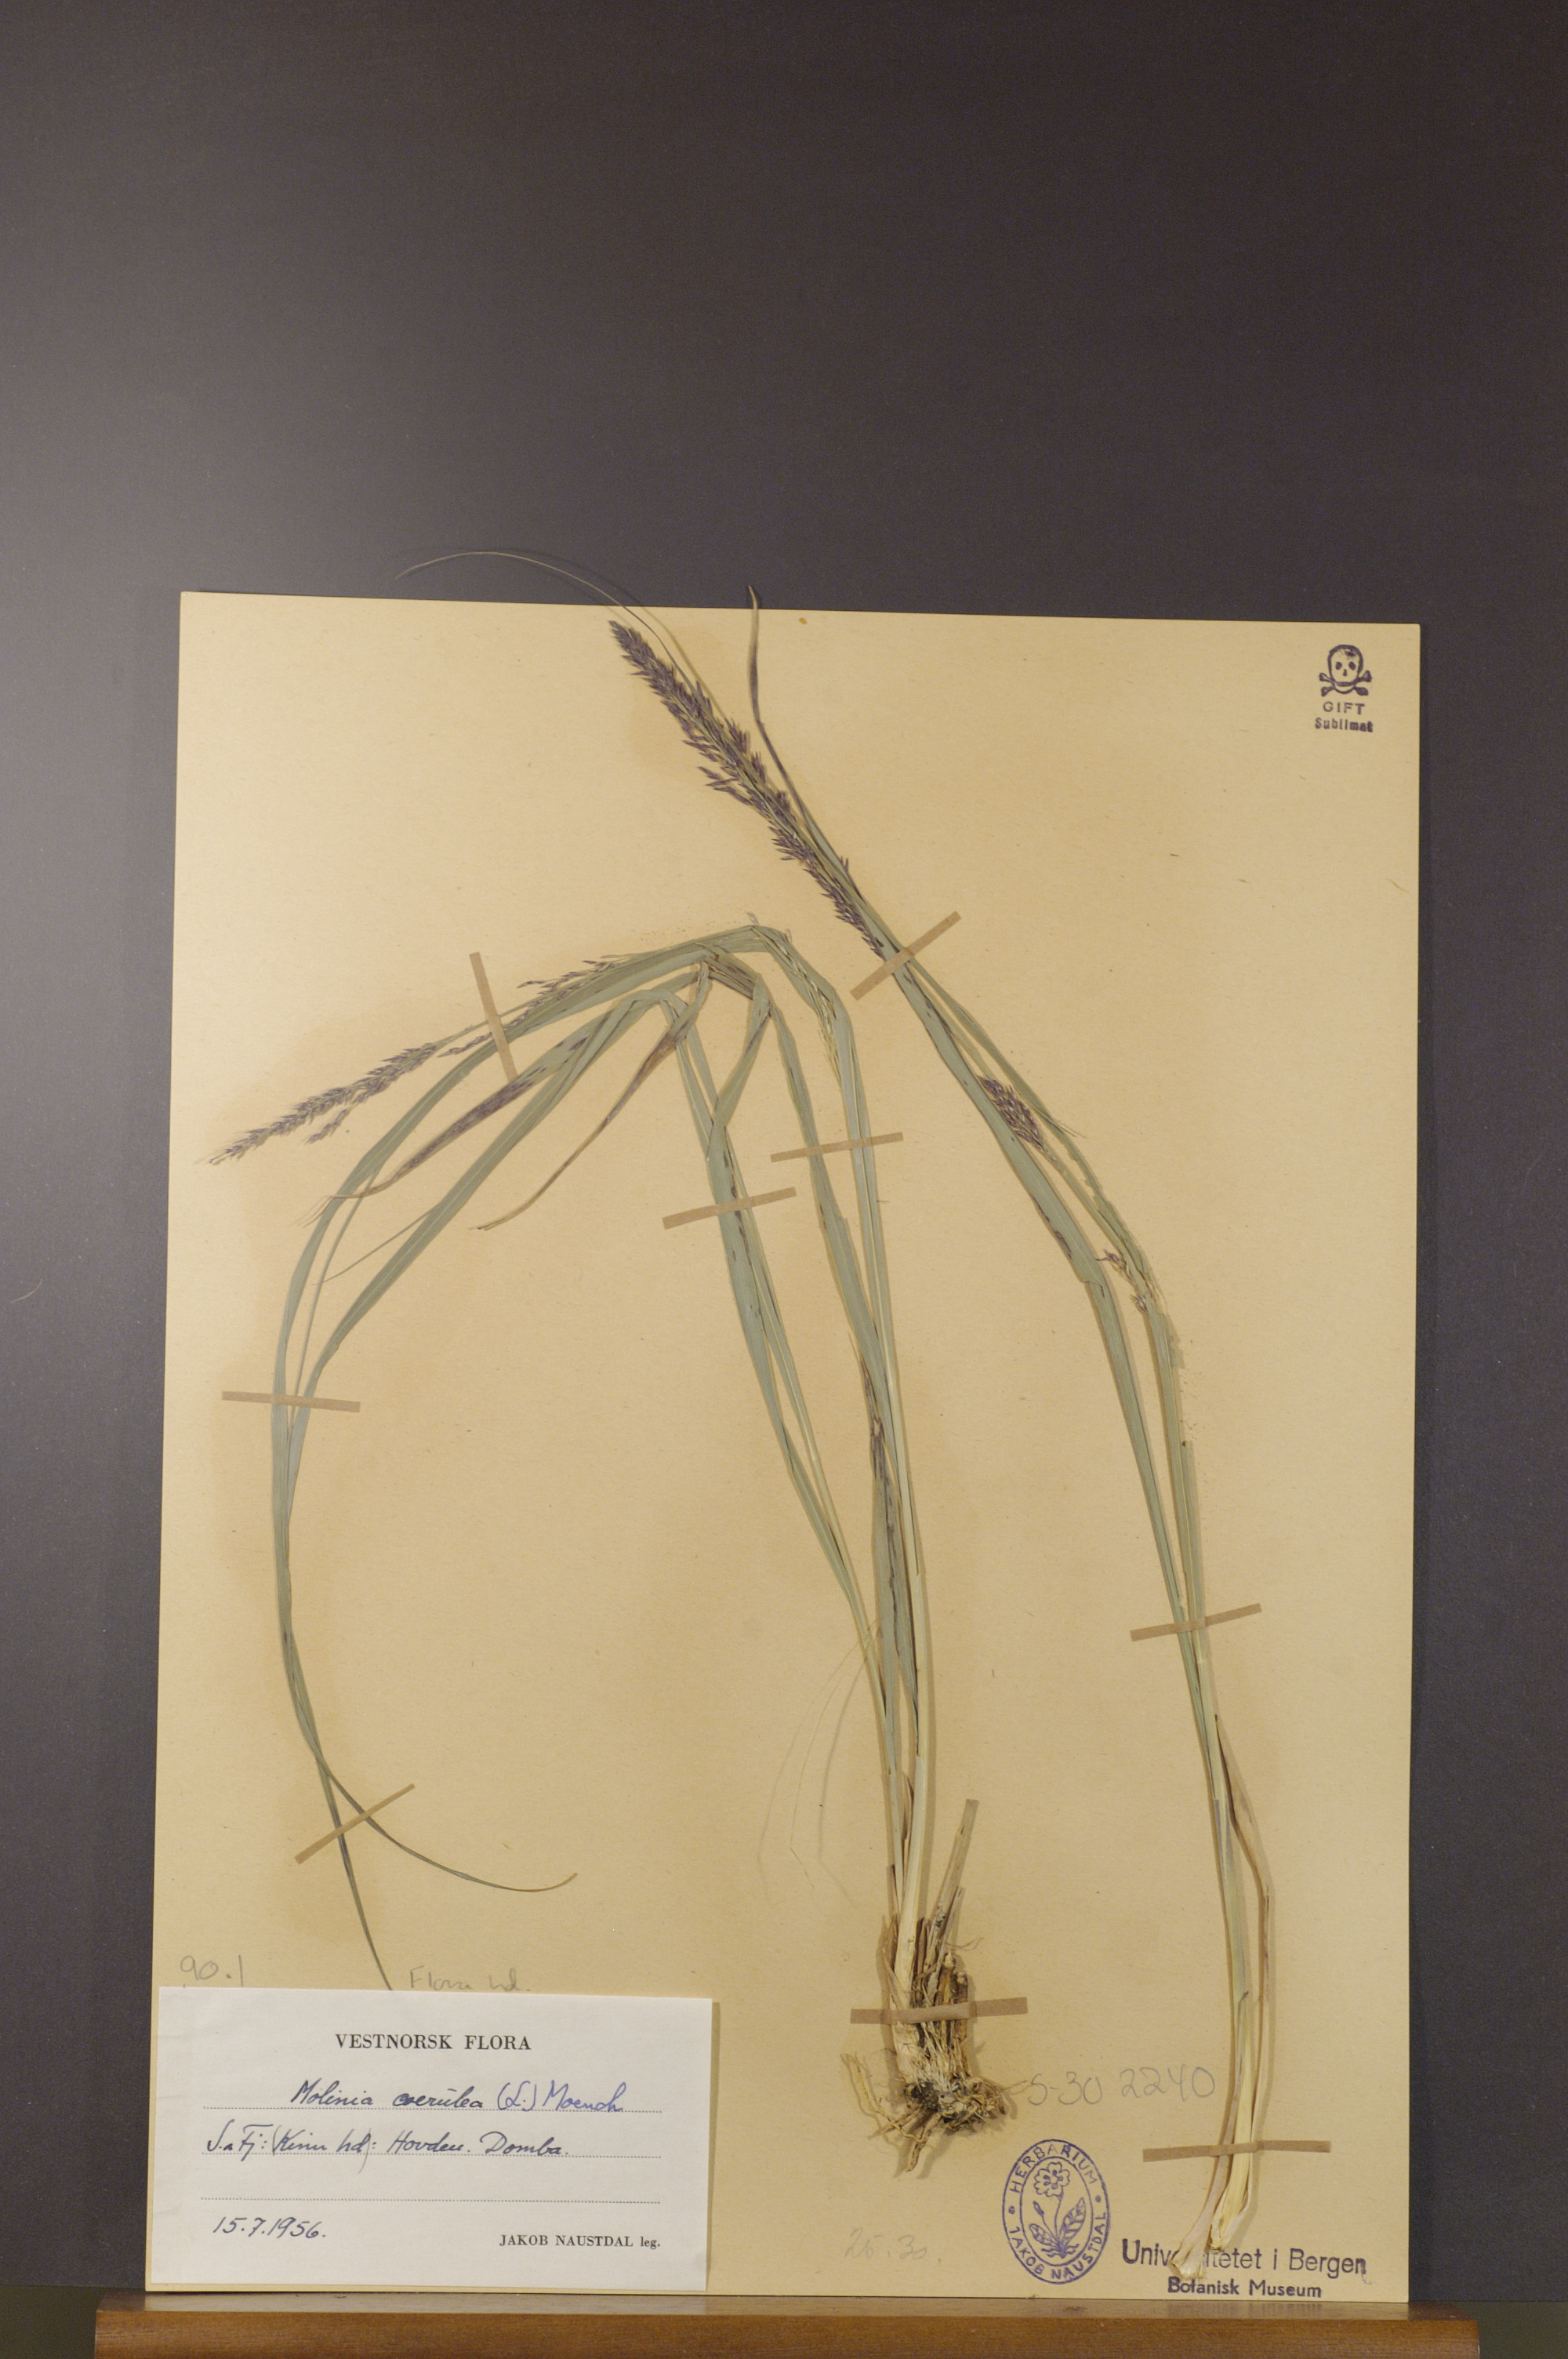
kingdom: Plantae
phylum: Tracheophyta
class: Liliopsida
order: Poales
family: Poaceae
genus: Molinia
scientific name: Molinia caerulea
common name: Purple moor-grass
